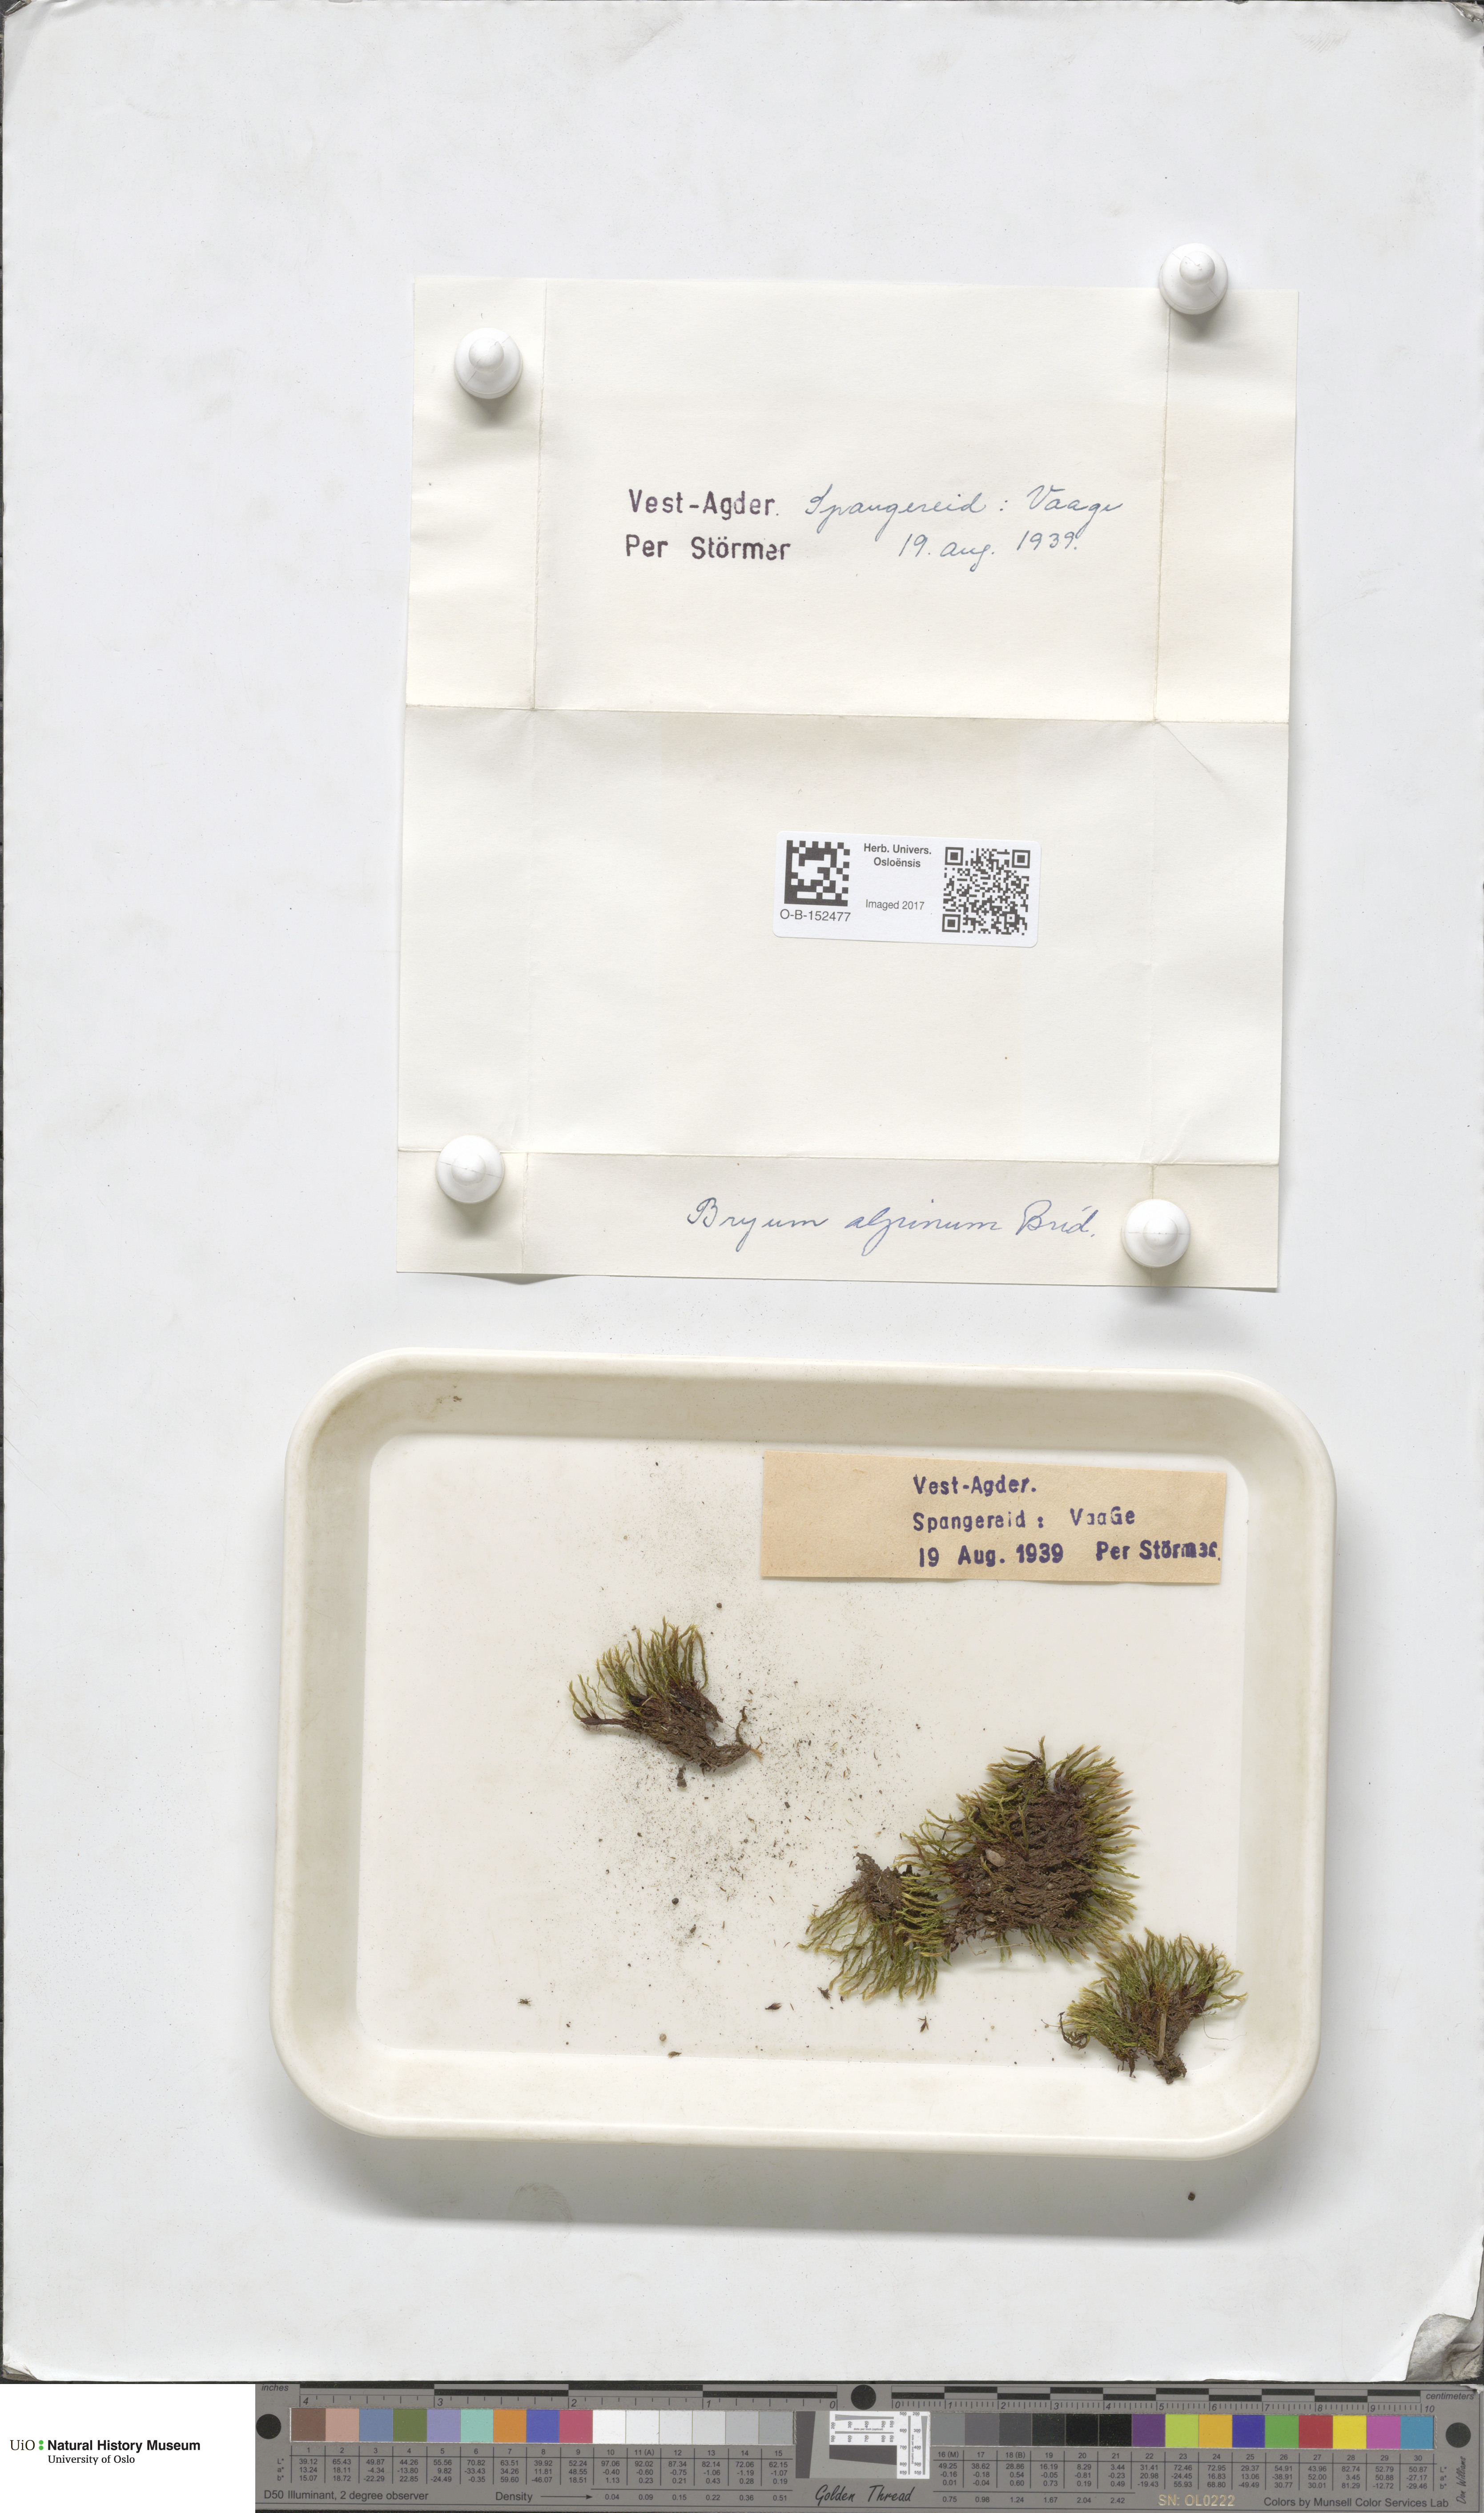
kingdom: Plantae
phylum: Bryophyta
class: Bryopsida
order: Bryales
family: Bryaceae
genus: Imbribryum
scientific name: Imbribryum alpinum
